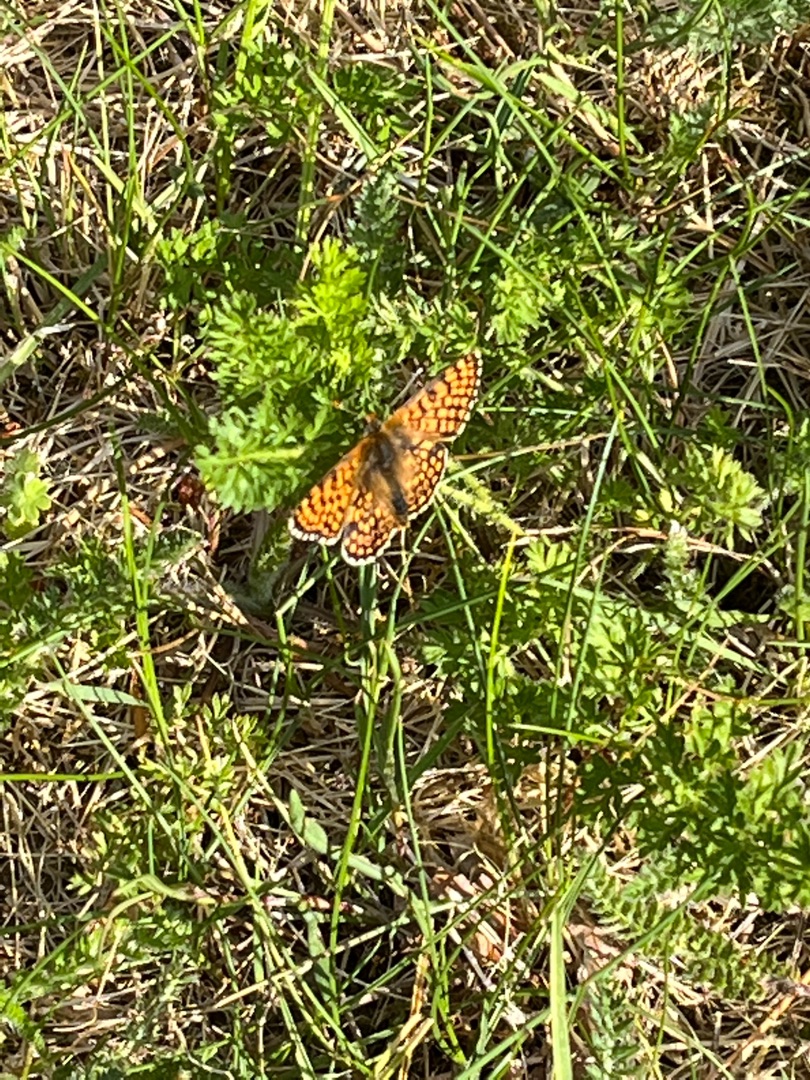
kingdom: Animalia
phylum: Arthropoda
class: Insecta
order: Lepidoptera
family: Nymphalidae
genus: Melitaea
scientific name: Melitaea cinxia
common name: Okkergul pletvinge
